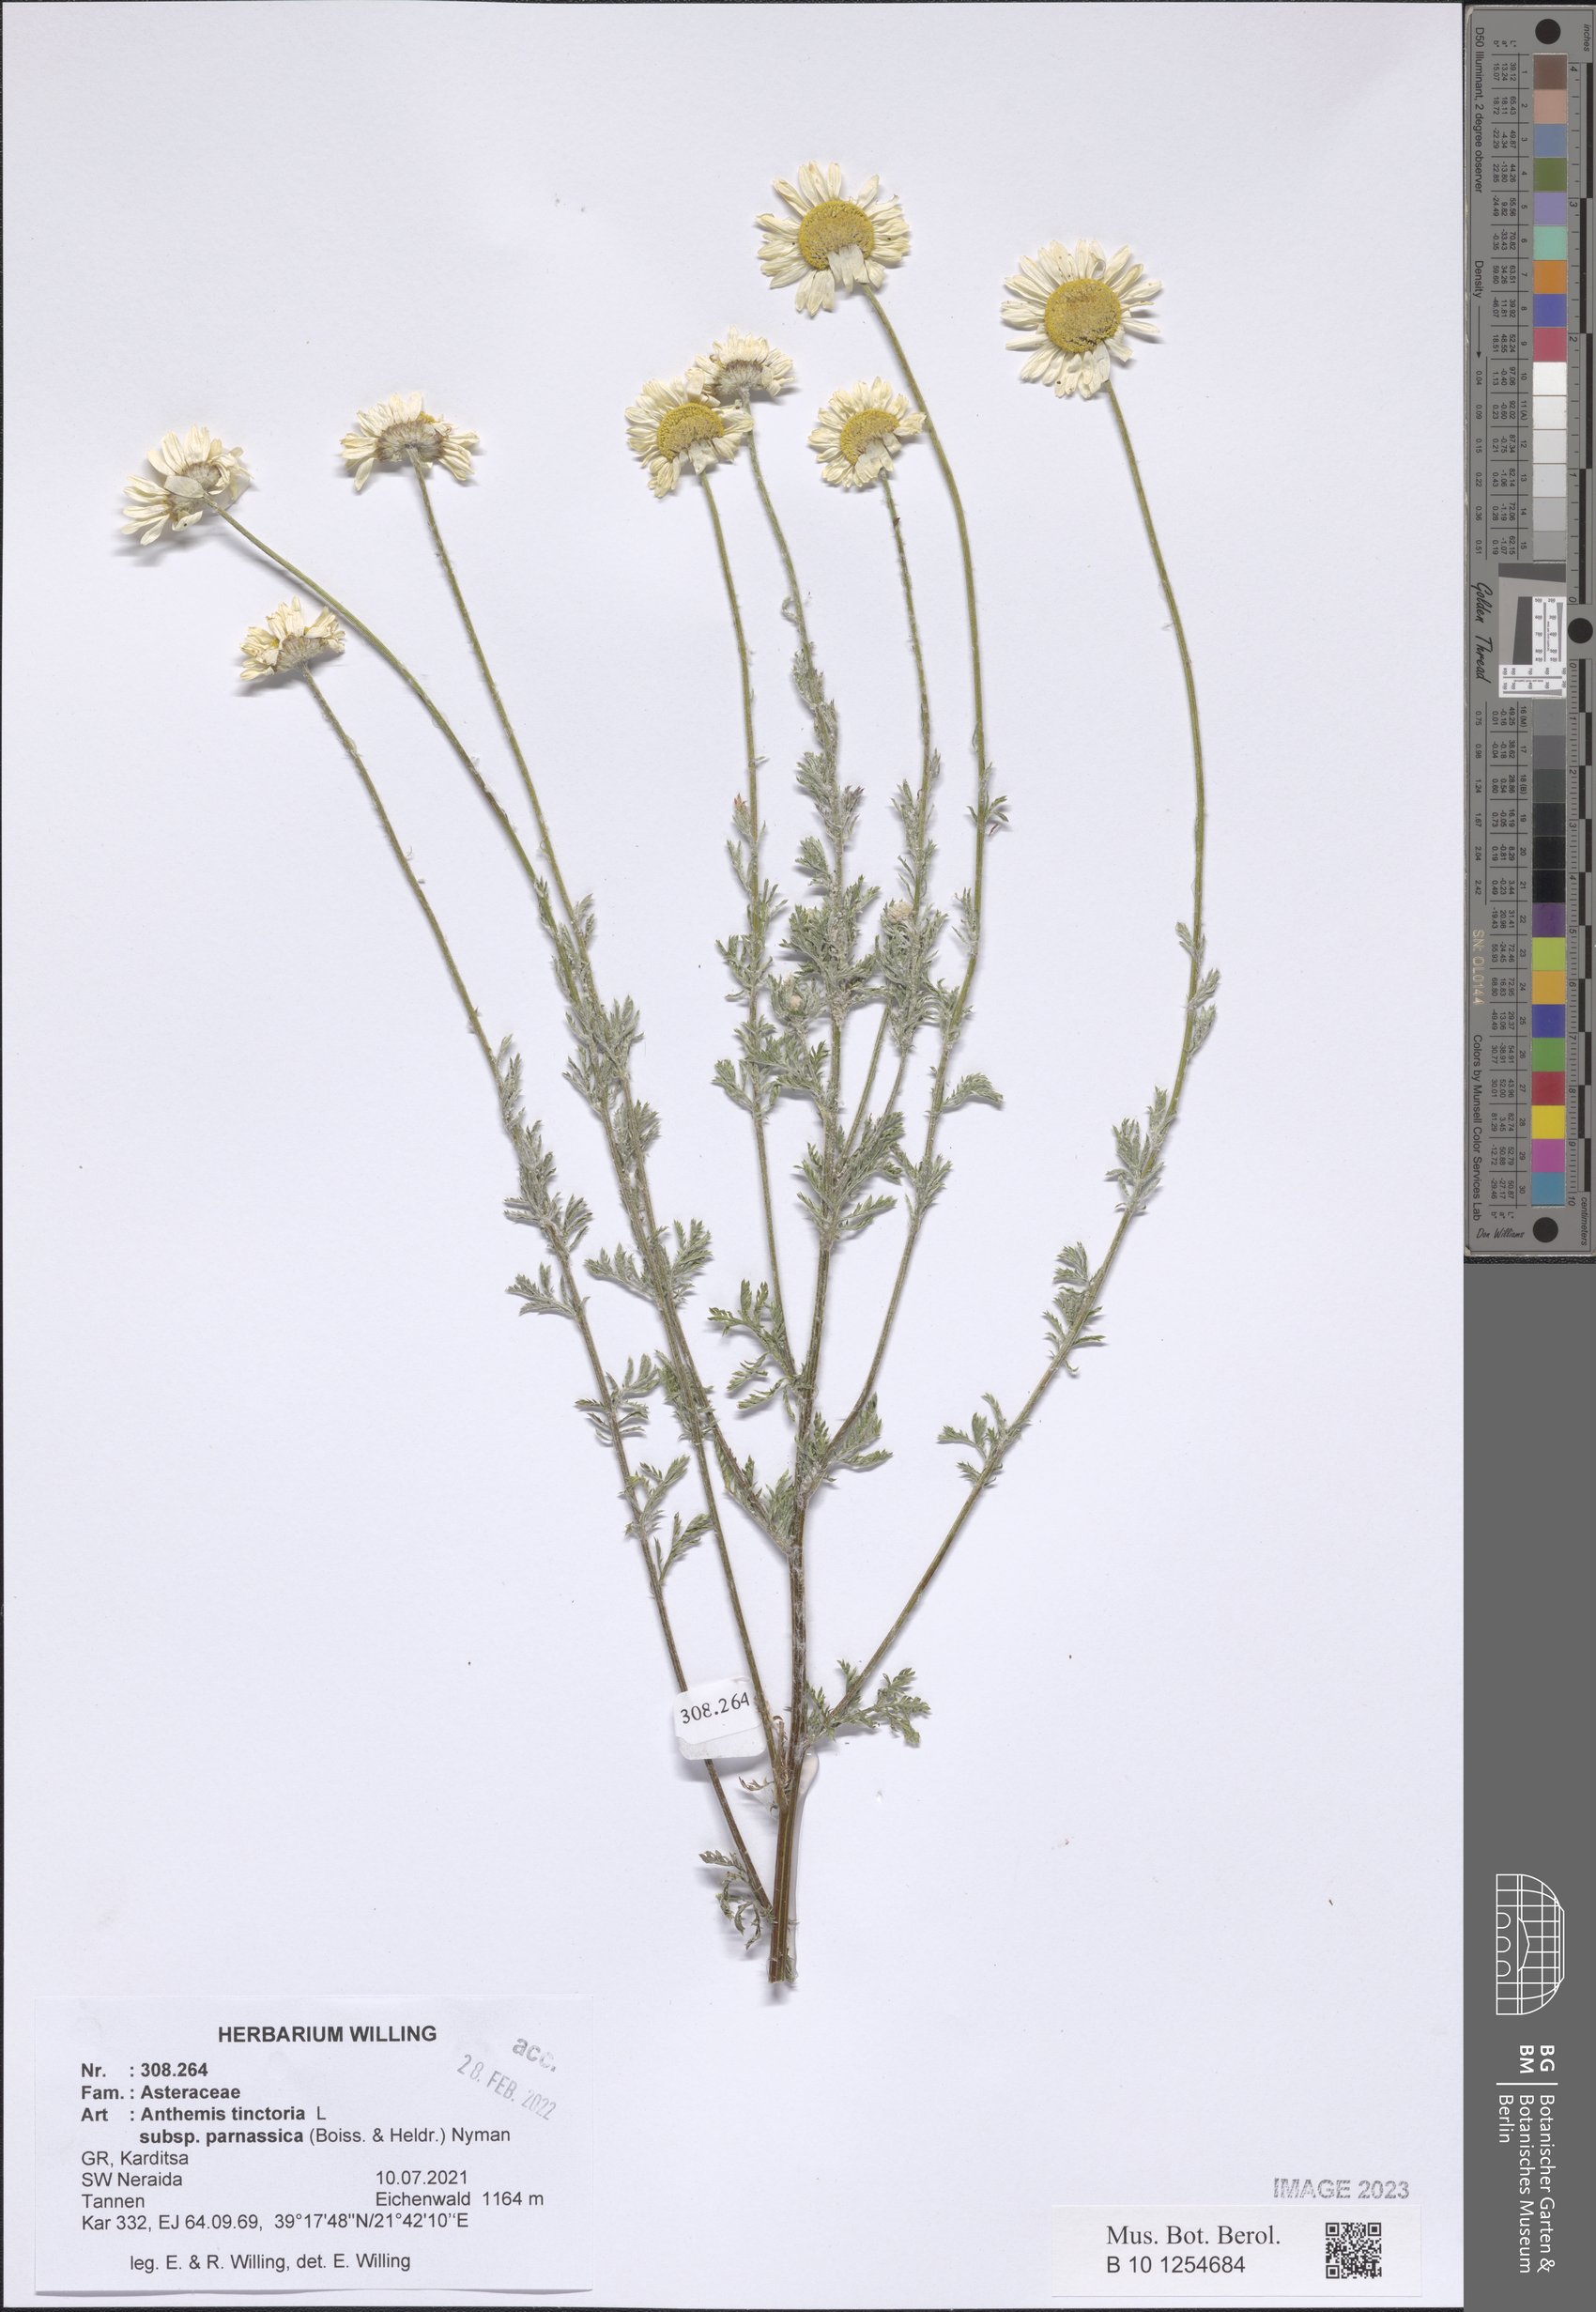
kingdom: Plantae
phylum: Tracheophyta
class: Magnoliopsida
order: Asterales
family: Asteraceae
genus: Cota
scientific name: Cota tinctoria
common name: Golden chamomile
